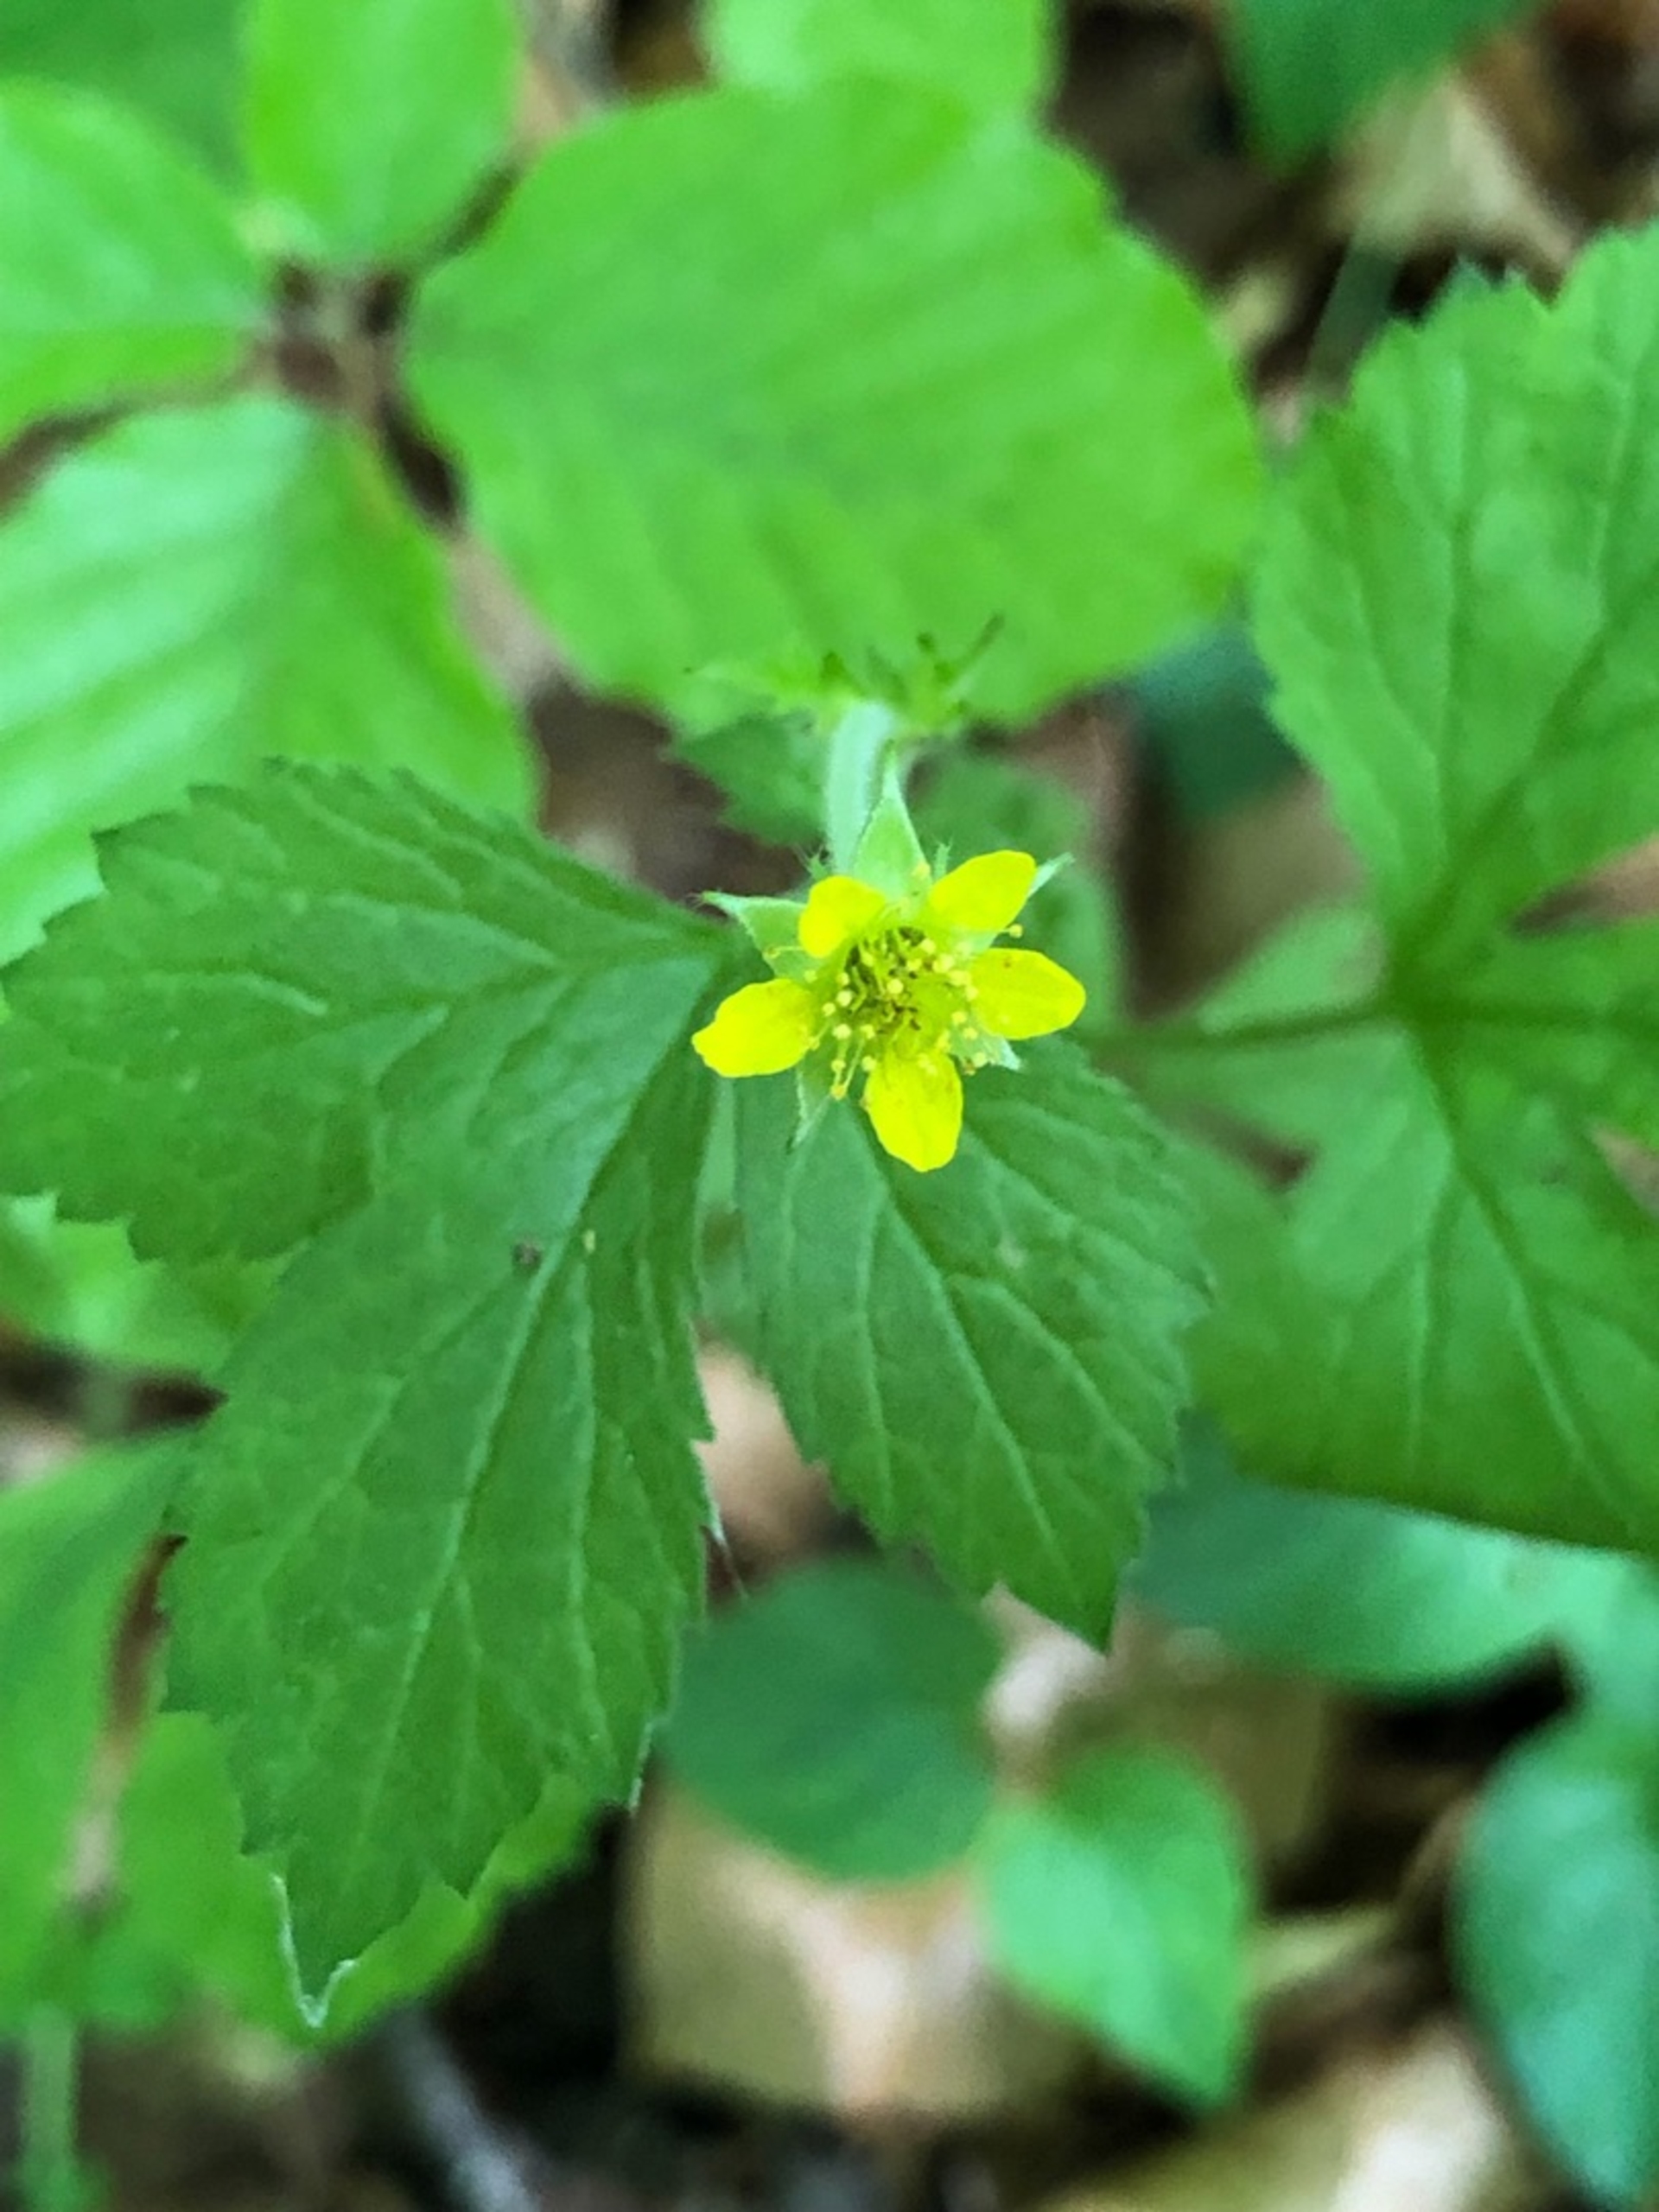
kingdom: Plantae
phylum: Tracheophyta
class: Magnoliopsida
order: Rosales
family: Rosaceae
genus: Geum
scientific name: Geum urbanum
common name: Feber-nellikerod
